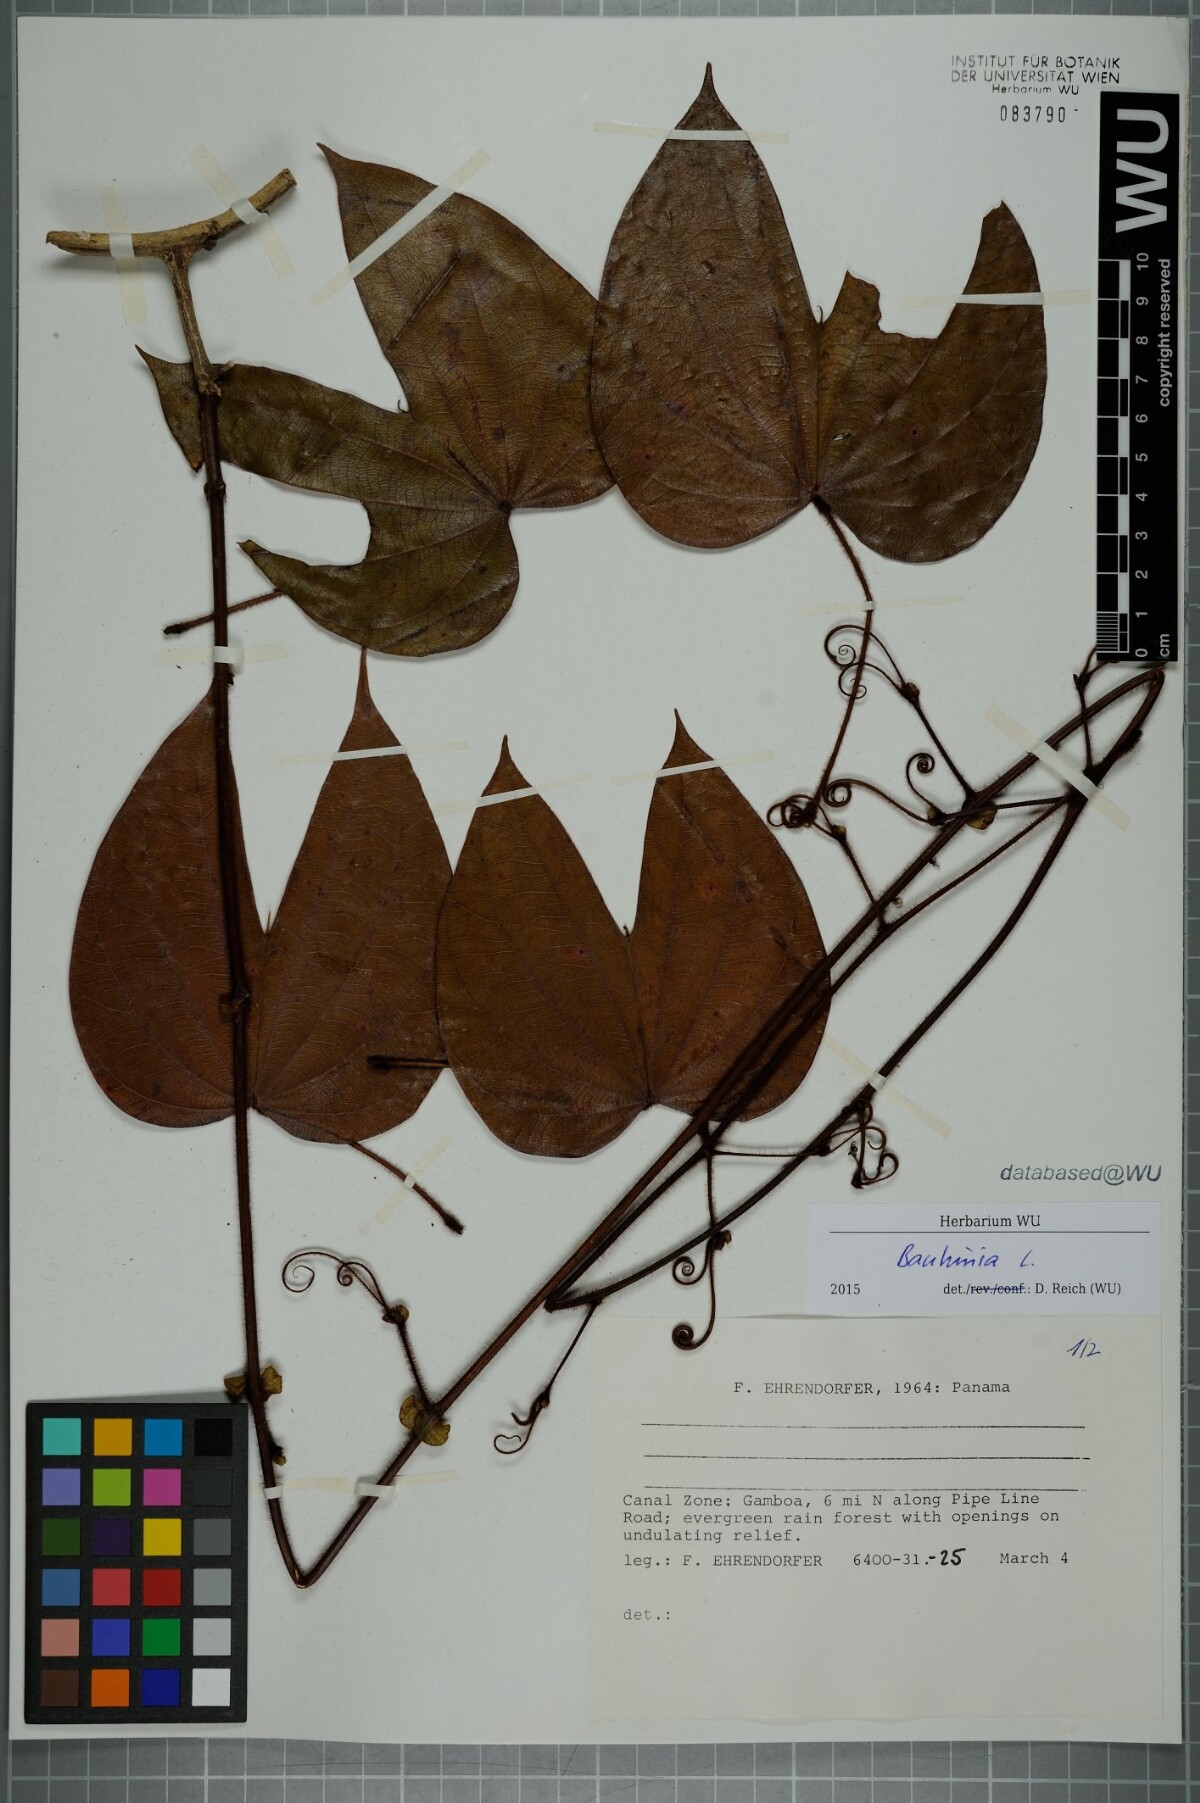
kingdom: Plantae
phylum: Tracheophyta
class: Magnoliopsida
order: Fabales
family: Fabaceae
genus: Bauhinia
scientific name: Bauhinia
